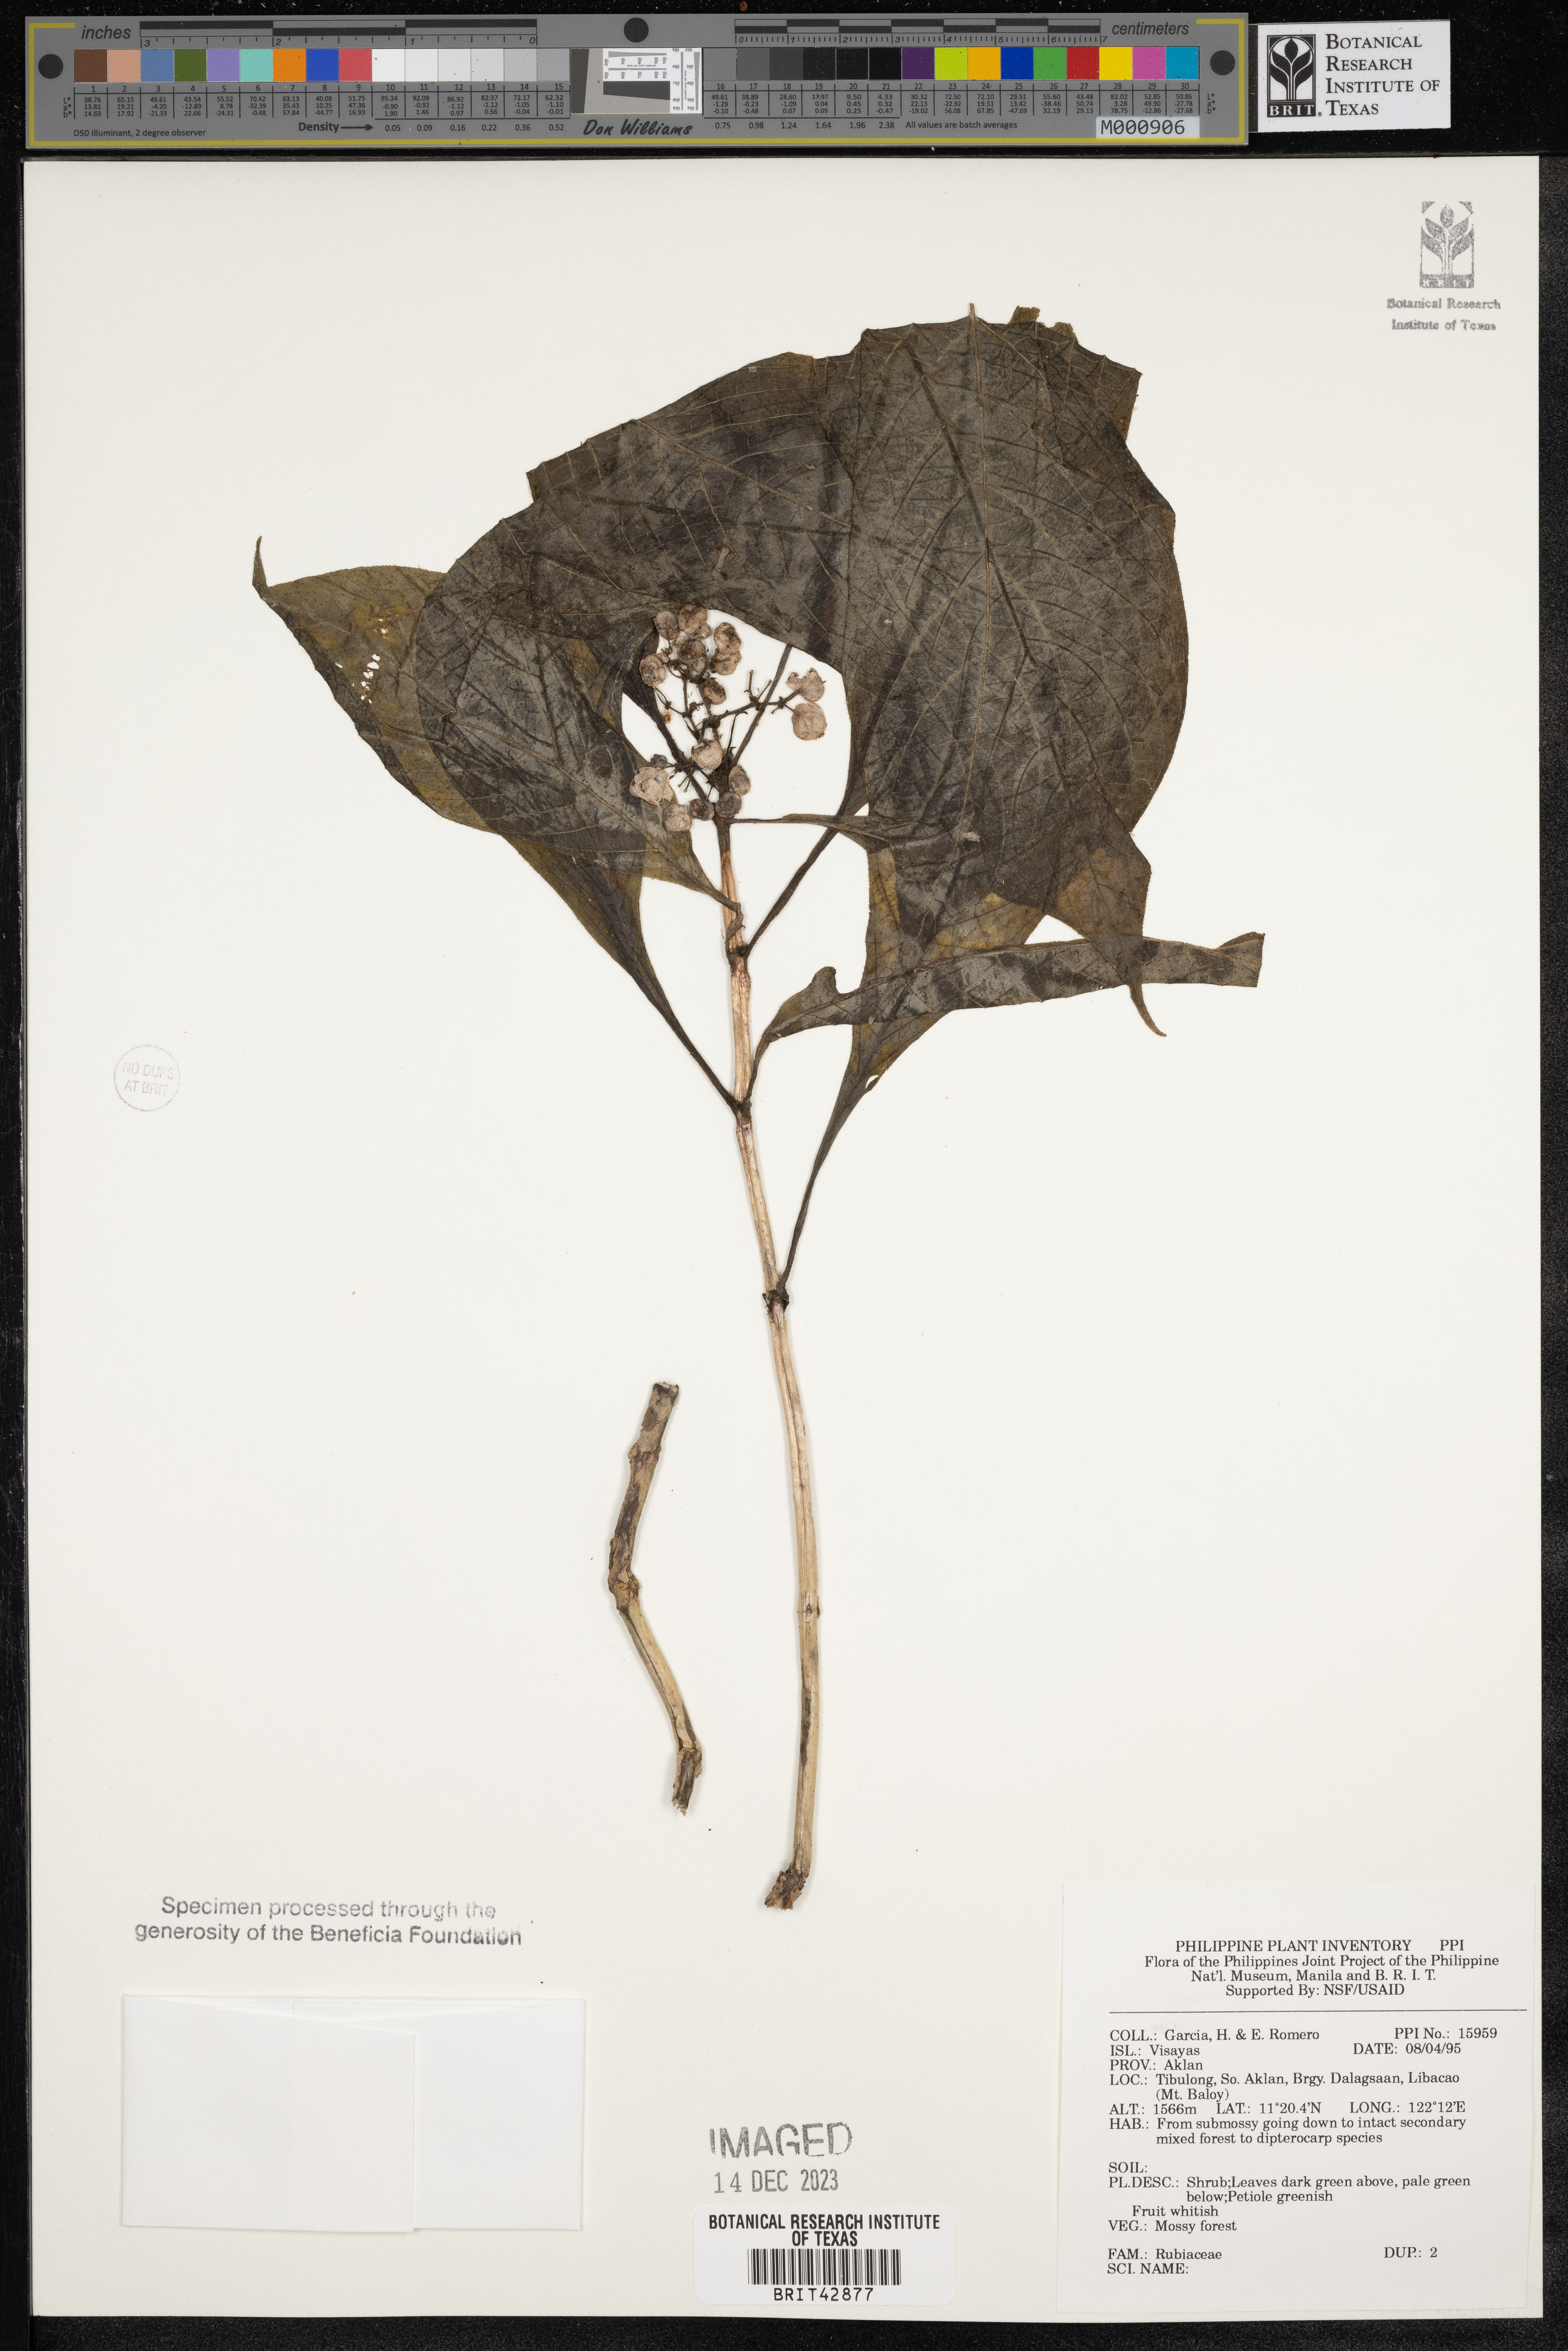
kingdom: Plantae
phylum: Tracheophyta
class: Polypodiopsida
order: Polypodiales
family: Thelypteridaceae
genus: Thelypteris
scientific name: Thelypteris palustris
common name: Marsh fern
